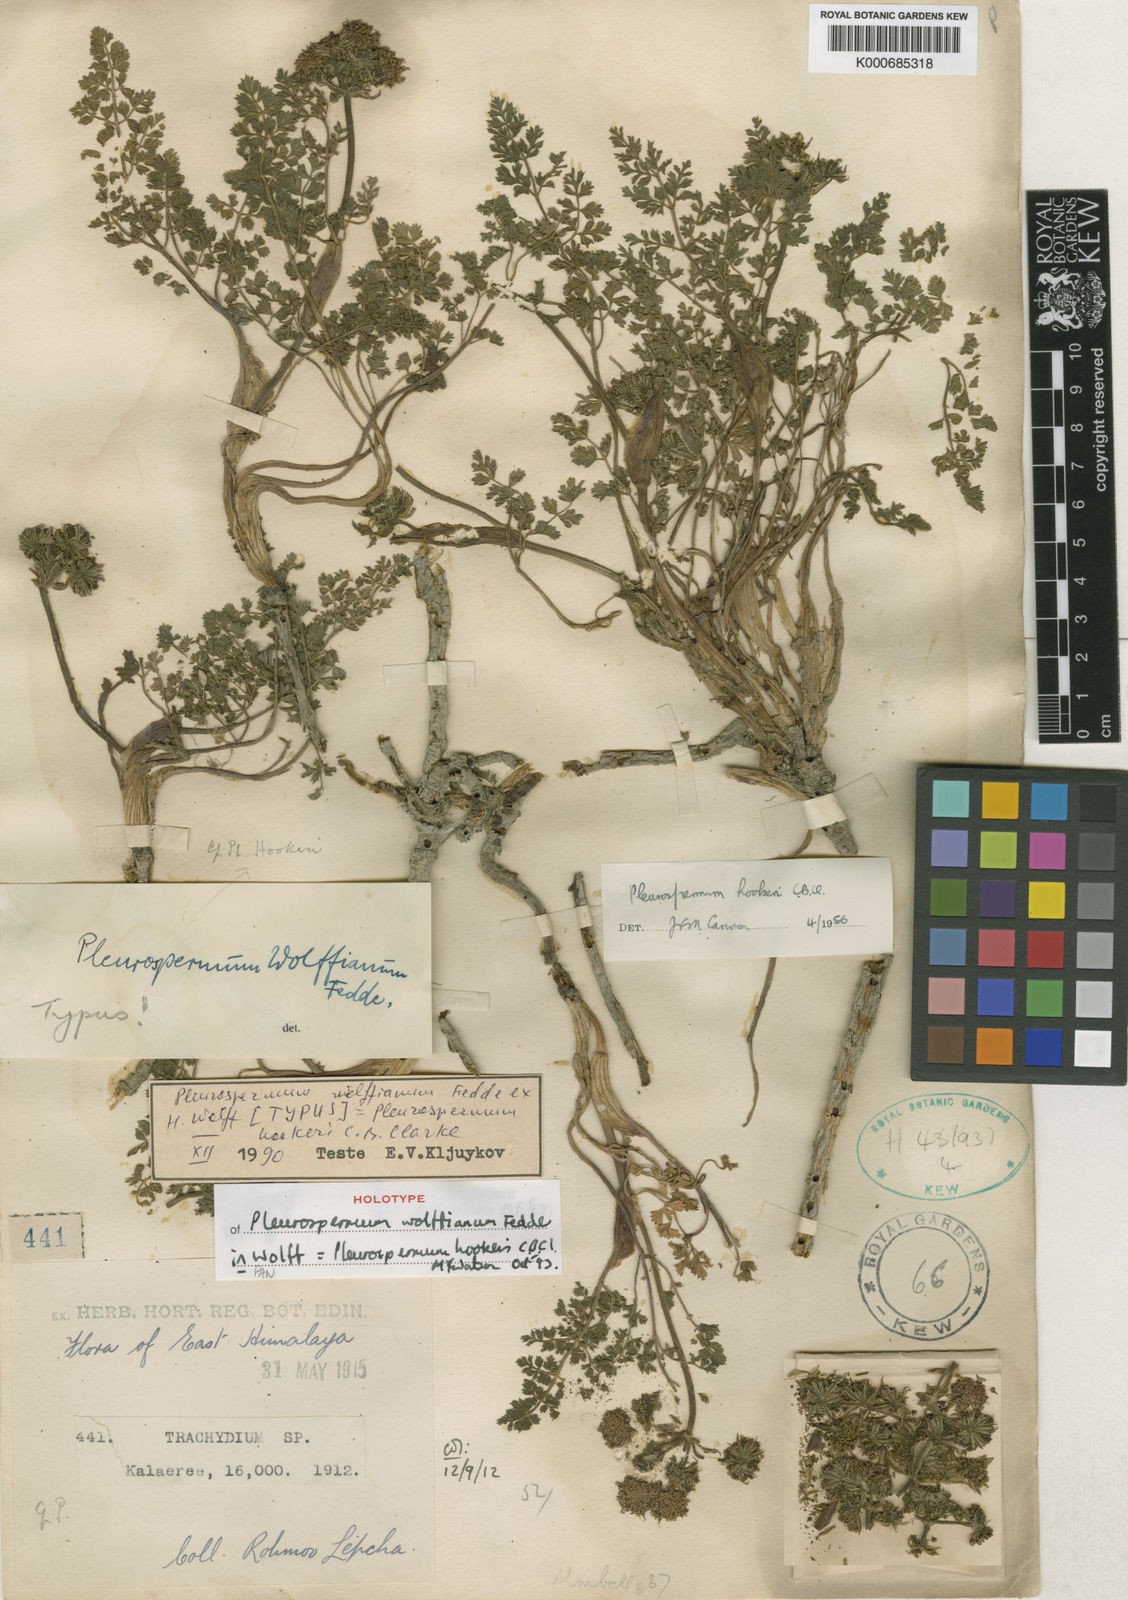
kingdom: Plantae
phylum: Tracheophyta
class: Magnoliopsida
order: Apiales
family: Apiaceae
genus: Pleurospermum
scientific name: Pleurospermum hookeri
